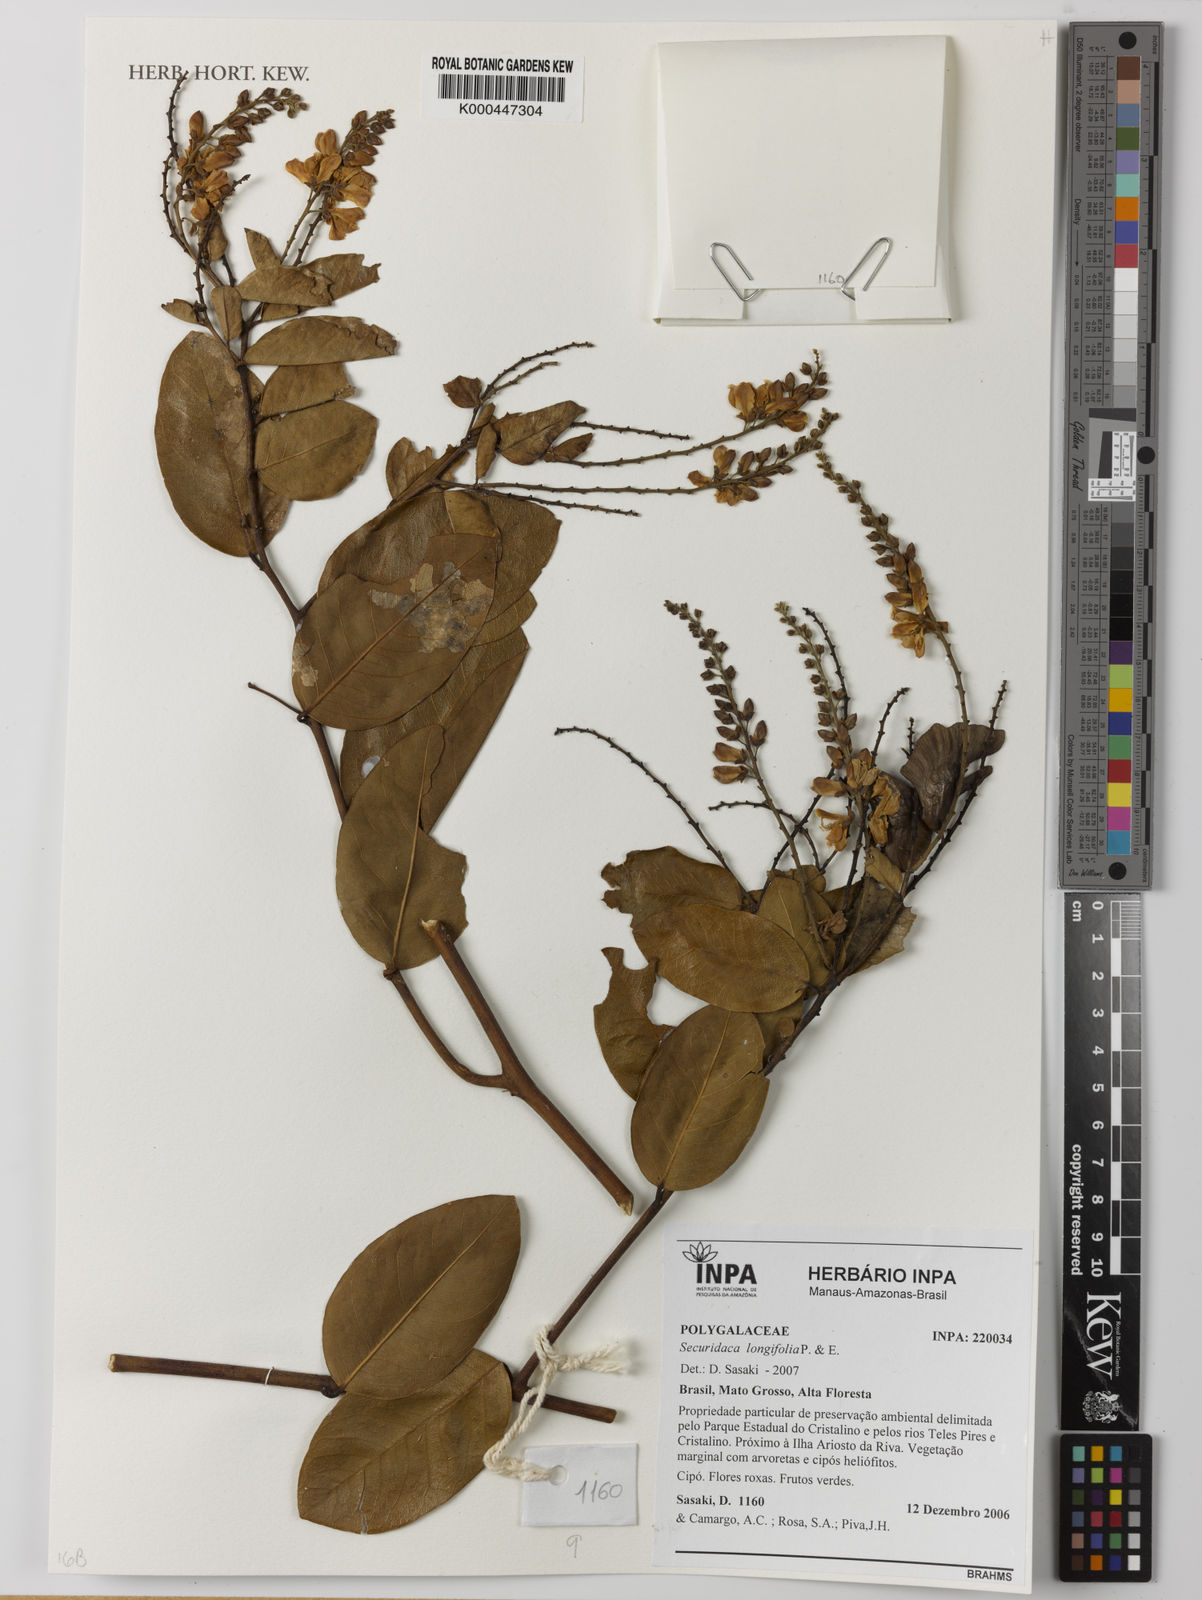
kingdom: Plantae
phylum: Tracheophyta
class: Magnoliopsida
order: Fabales
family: Polygalaceae
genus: Securidaca
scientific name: Securidaca longifolia
